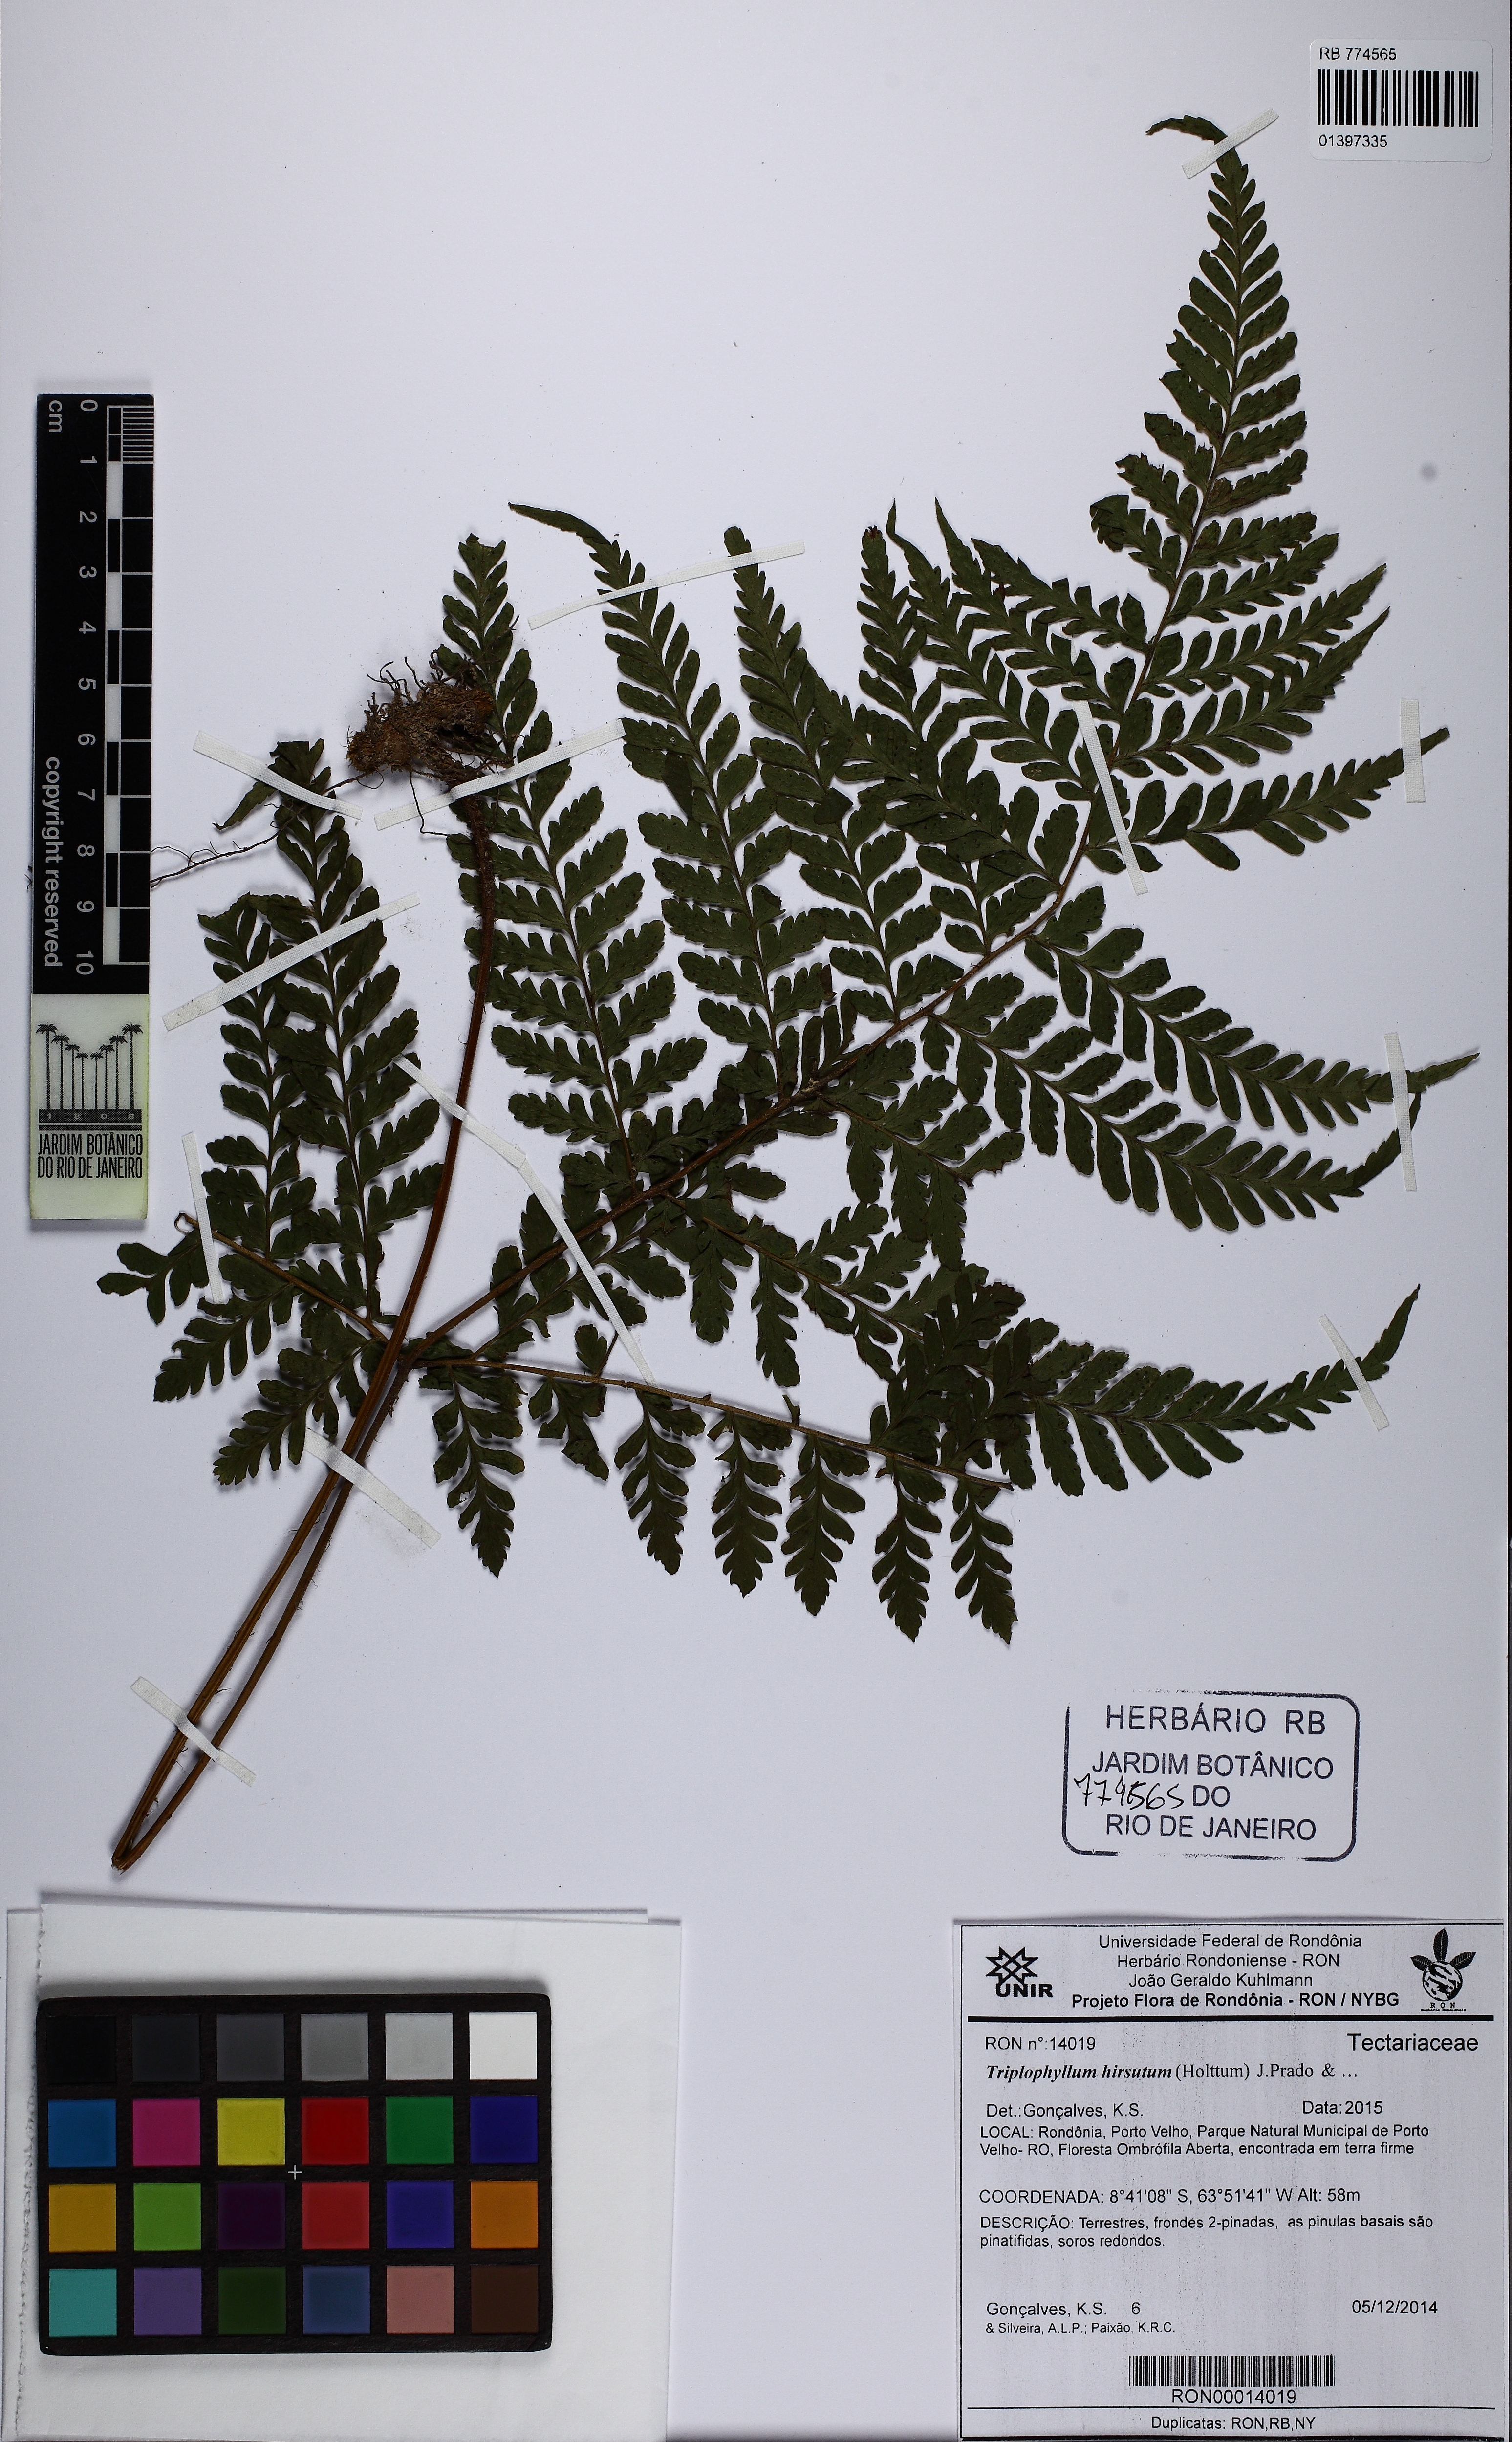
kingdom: Plantae
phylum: Tracheophyta
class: Polypodiopsida
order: Polypodiales
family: Tectariaceae
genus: Triplophyllum
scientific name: Triplophyllum hirsutum
